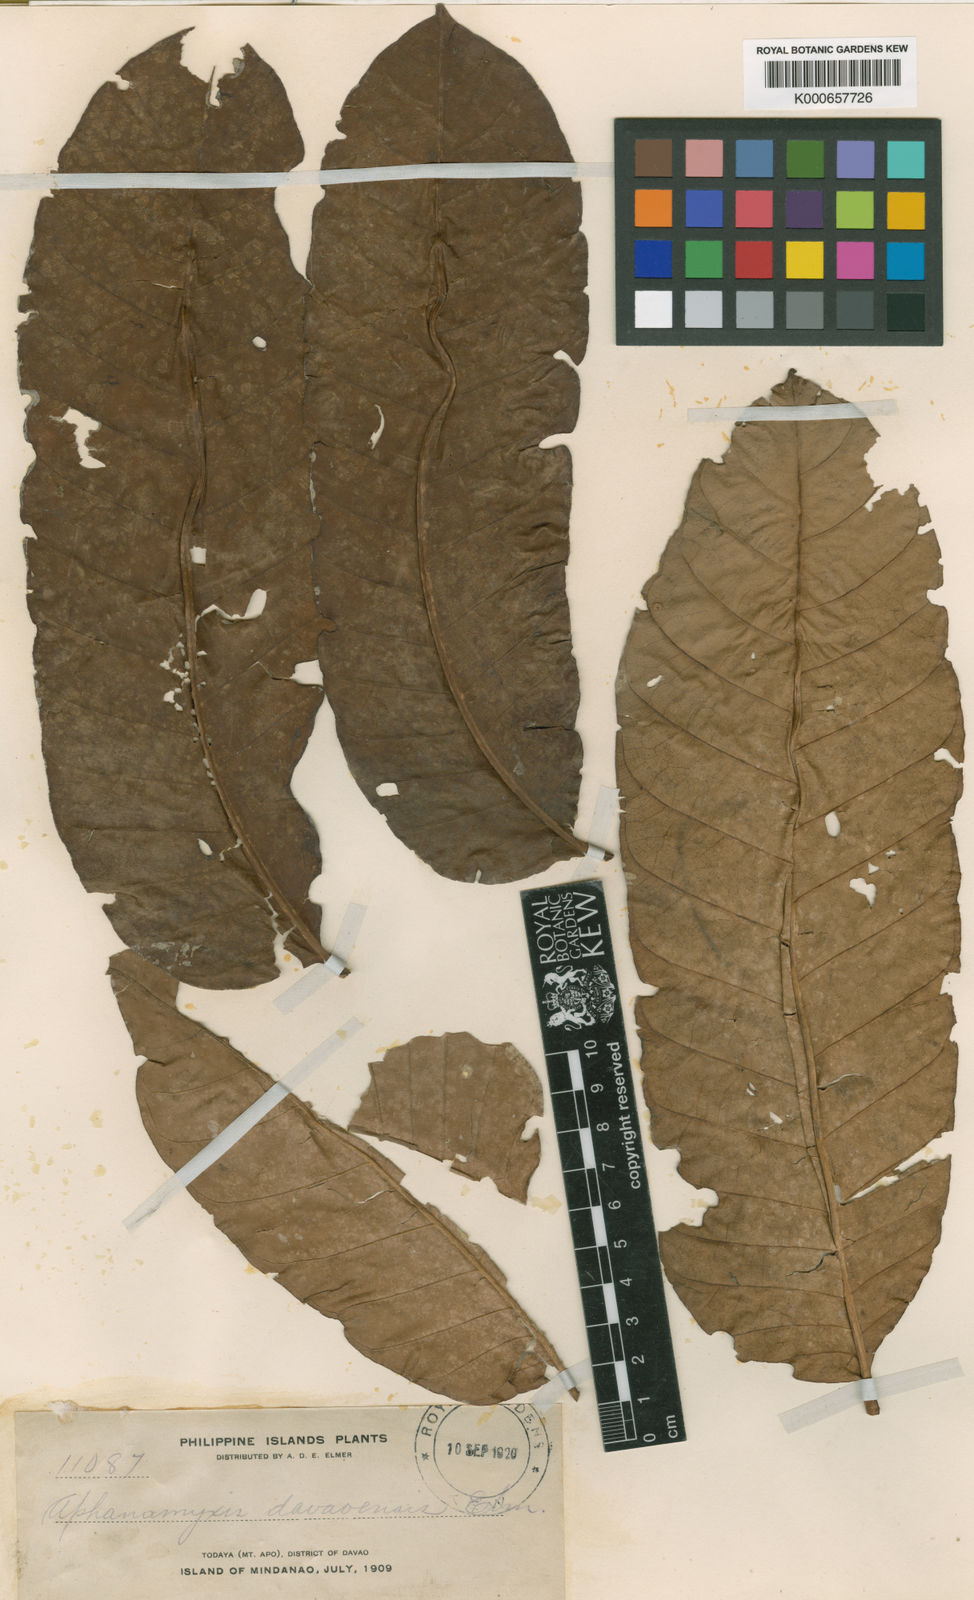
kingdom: Plantae
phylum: Tracheophyta
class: Magnoliopsida
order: Sapindales
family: Meliaceae
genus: Aphanamixis
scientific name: Aphanamixis polystachya
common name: Pithraj tree
